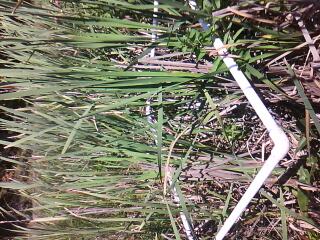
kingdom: Plantae
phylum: Tracheophyta
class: Magnoliopsida
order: Solanales
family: Solanaceae
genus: Solanum
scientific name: Solanum dulcamara
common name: Climbing nightshade
